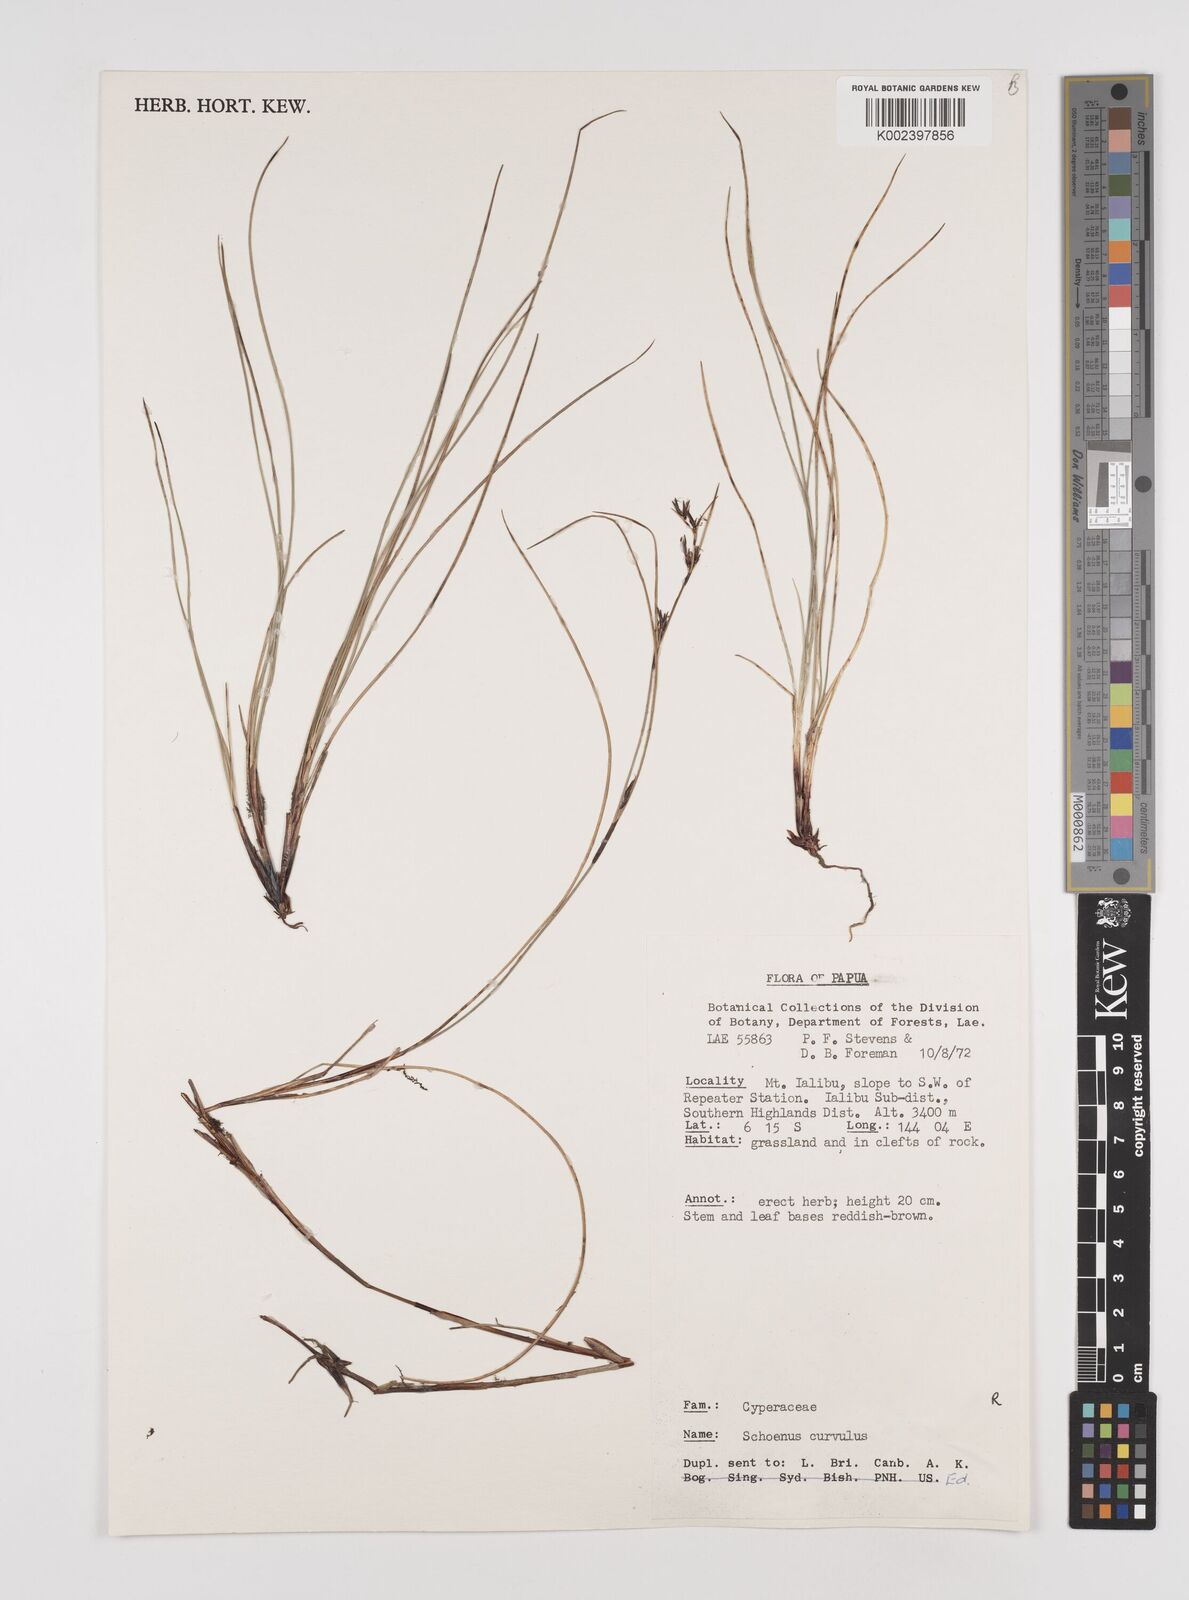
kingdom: Plantae
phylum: Tracheophyta
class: Liliopsida
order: Poales
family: Cyperaceae
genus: Schoenus
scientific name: Schoenus curvulus
